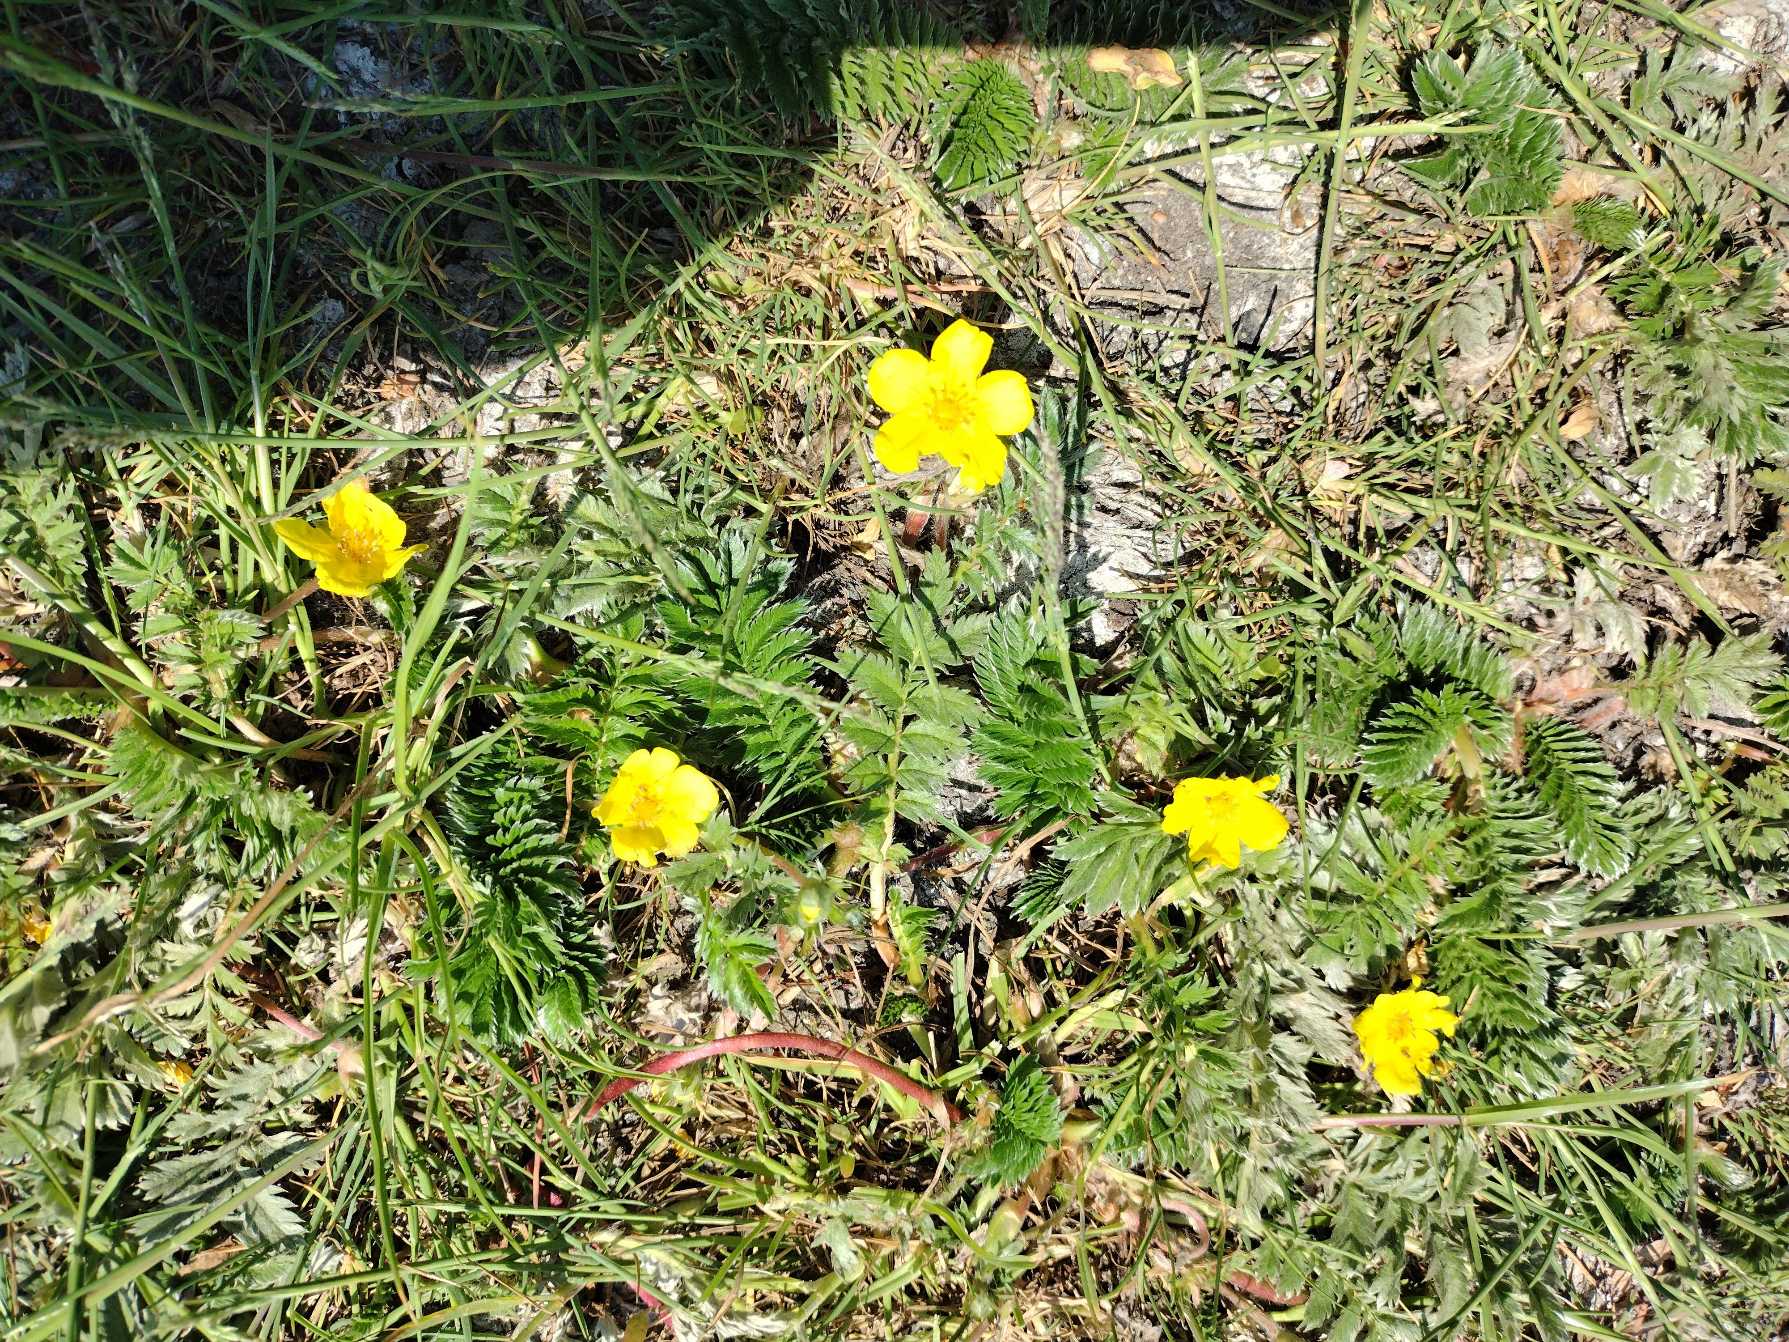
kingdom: Plantae
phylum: Tracheophyta
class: Magnoliopsida
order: Rosales
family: Rosaceae
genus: Argentina
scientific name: Argentina anserina
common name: Gåsepotentil
